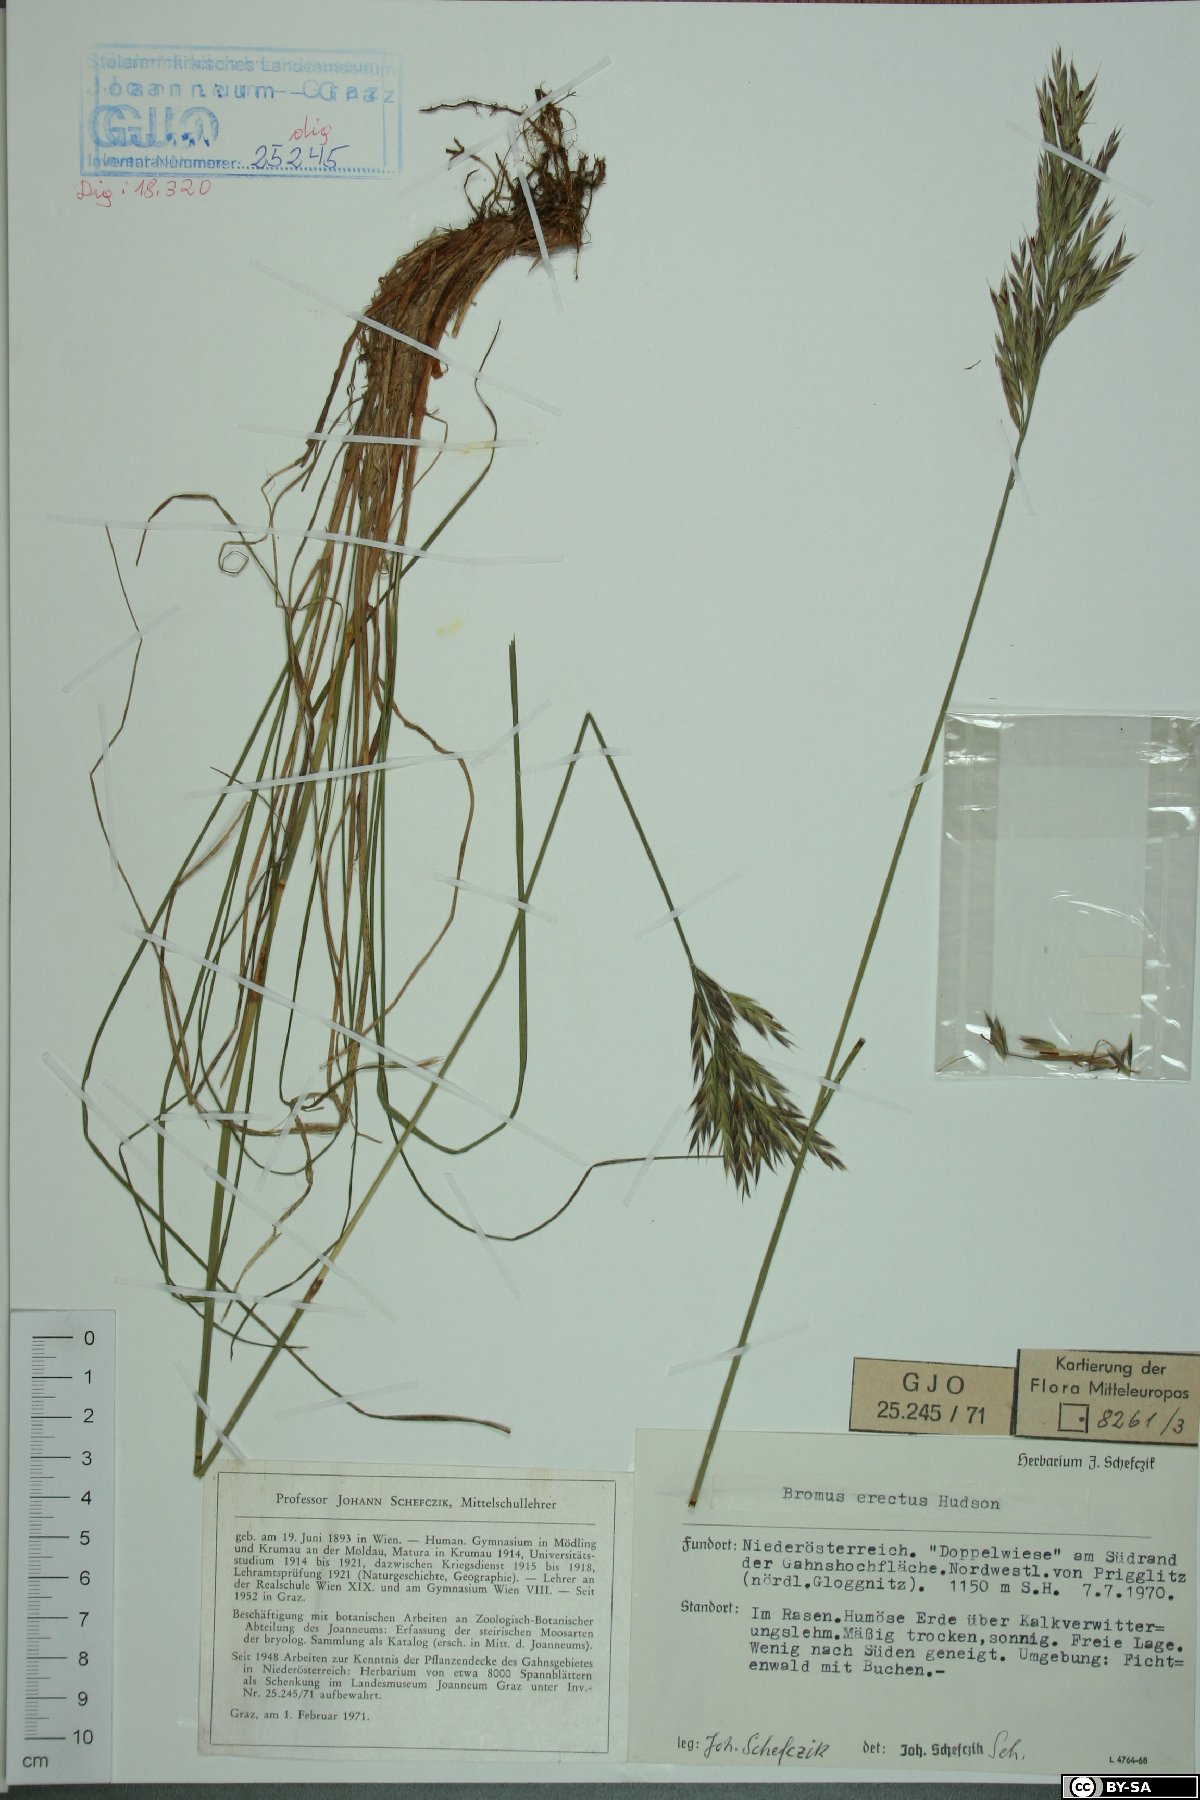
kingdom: Plantae
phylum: Tracheophyta
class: Liliopsida
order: Poales
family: Poaceae
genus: Bromus
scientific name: Bromus erectus
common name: Erect brome
